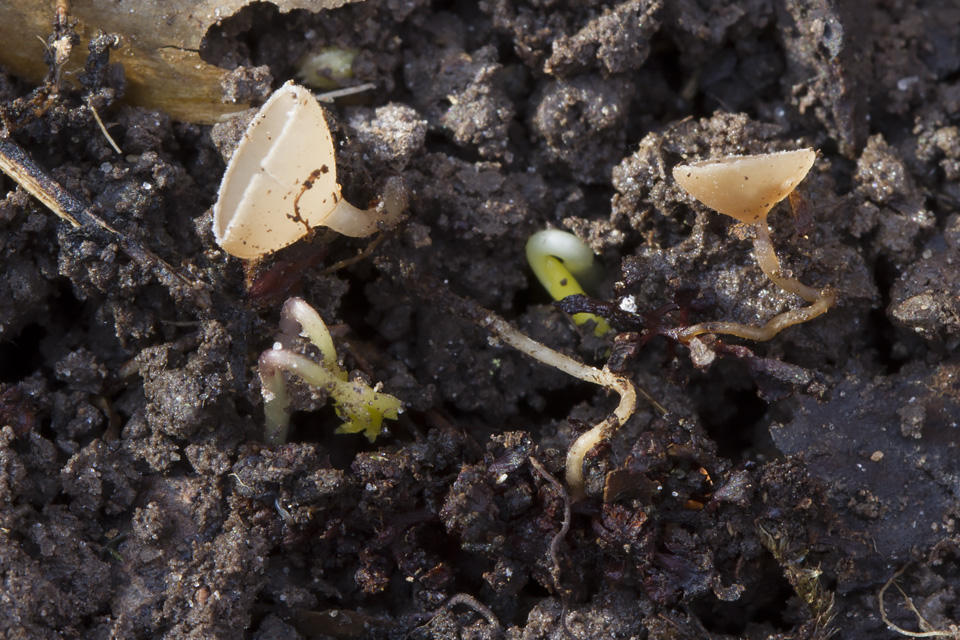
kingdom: Fungi
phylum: Ascomycota
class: Leotiomycetes
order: Helotiales
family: Sclerotiniaceae
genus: Ciboria
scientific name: Ciboria amentacea
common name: ellerakle-knoldskive
